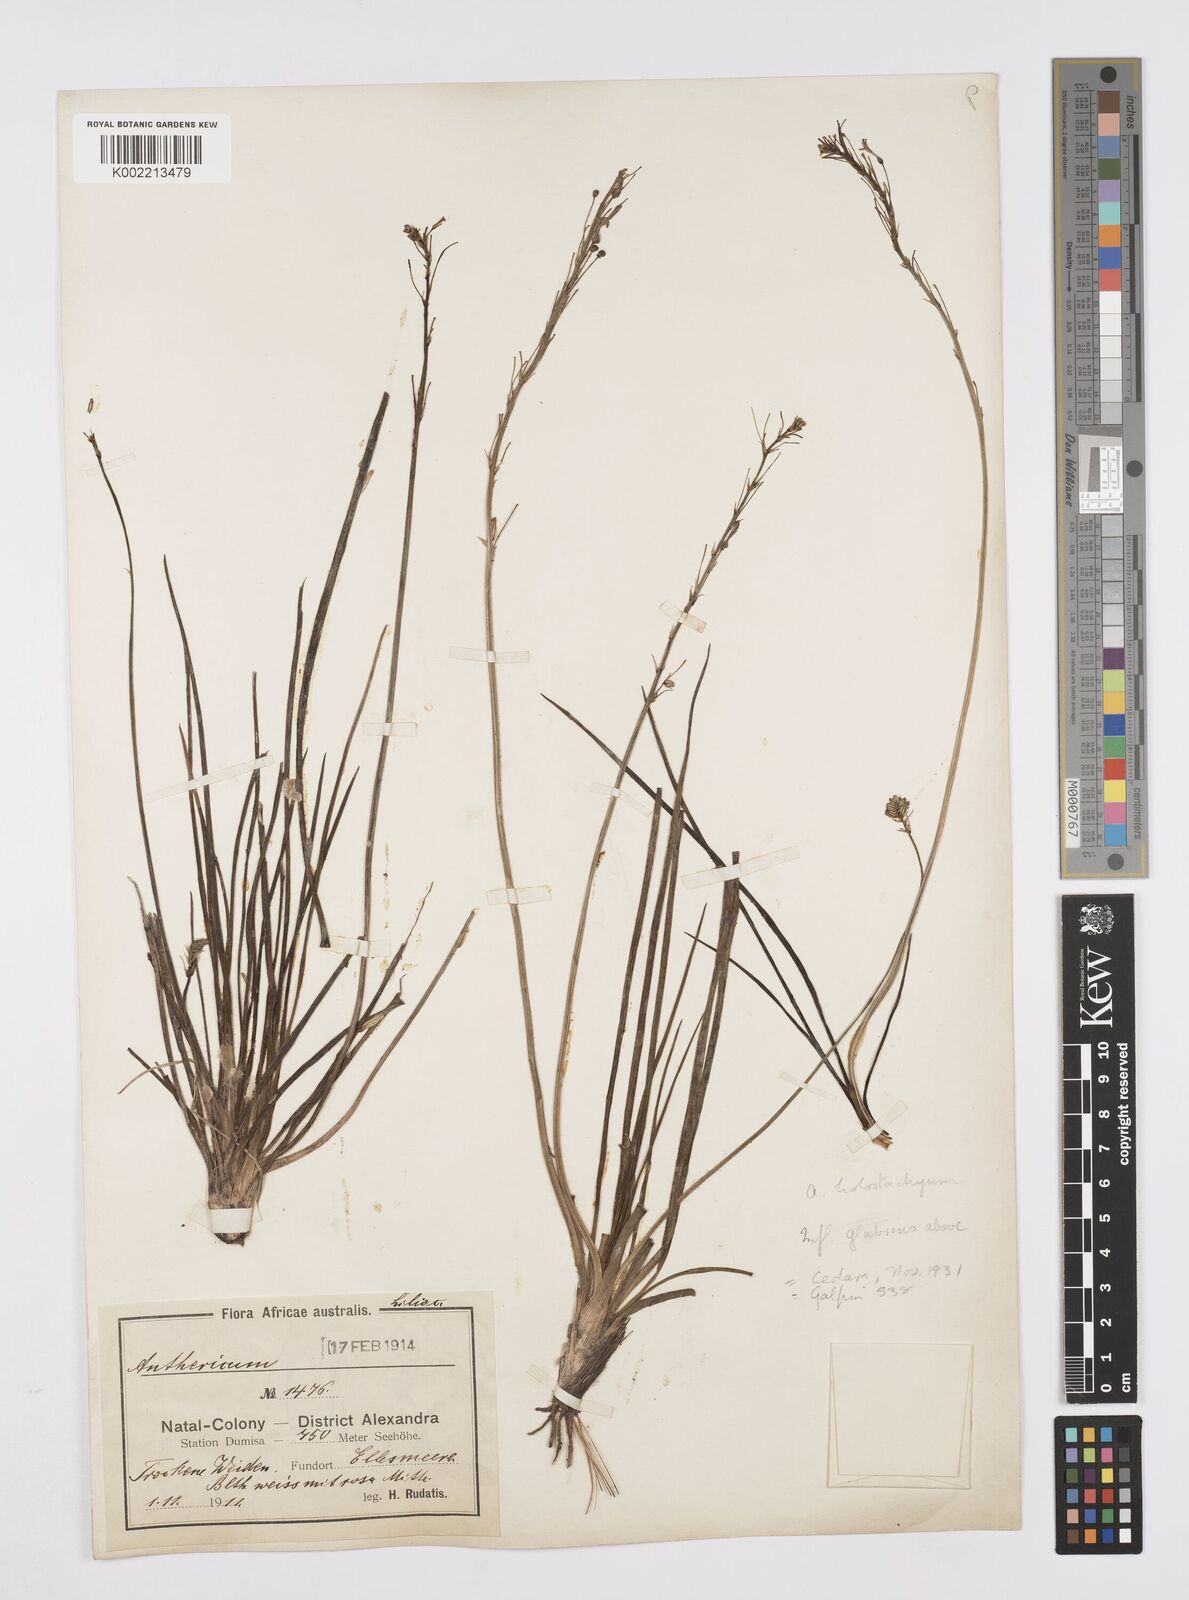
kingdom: Plantae
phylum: Tracheophyta
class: Liliopsida
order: Asparagales
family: Asphodelaceae
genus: Trachyandra
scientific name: Trachyandra saltii
